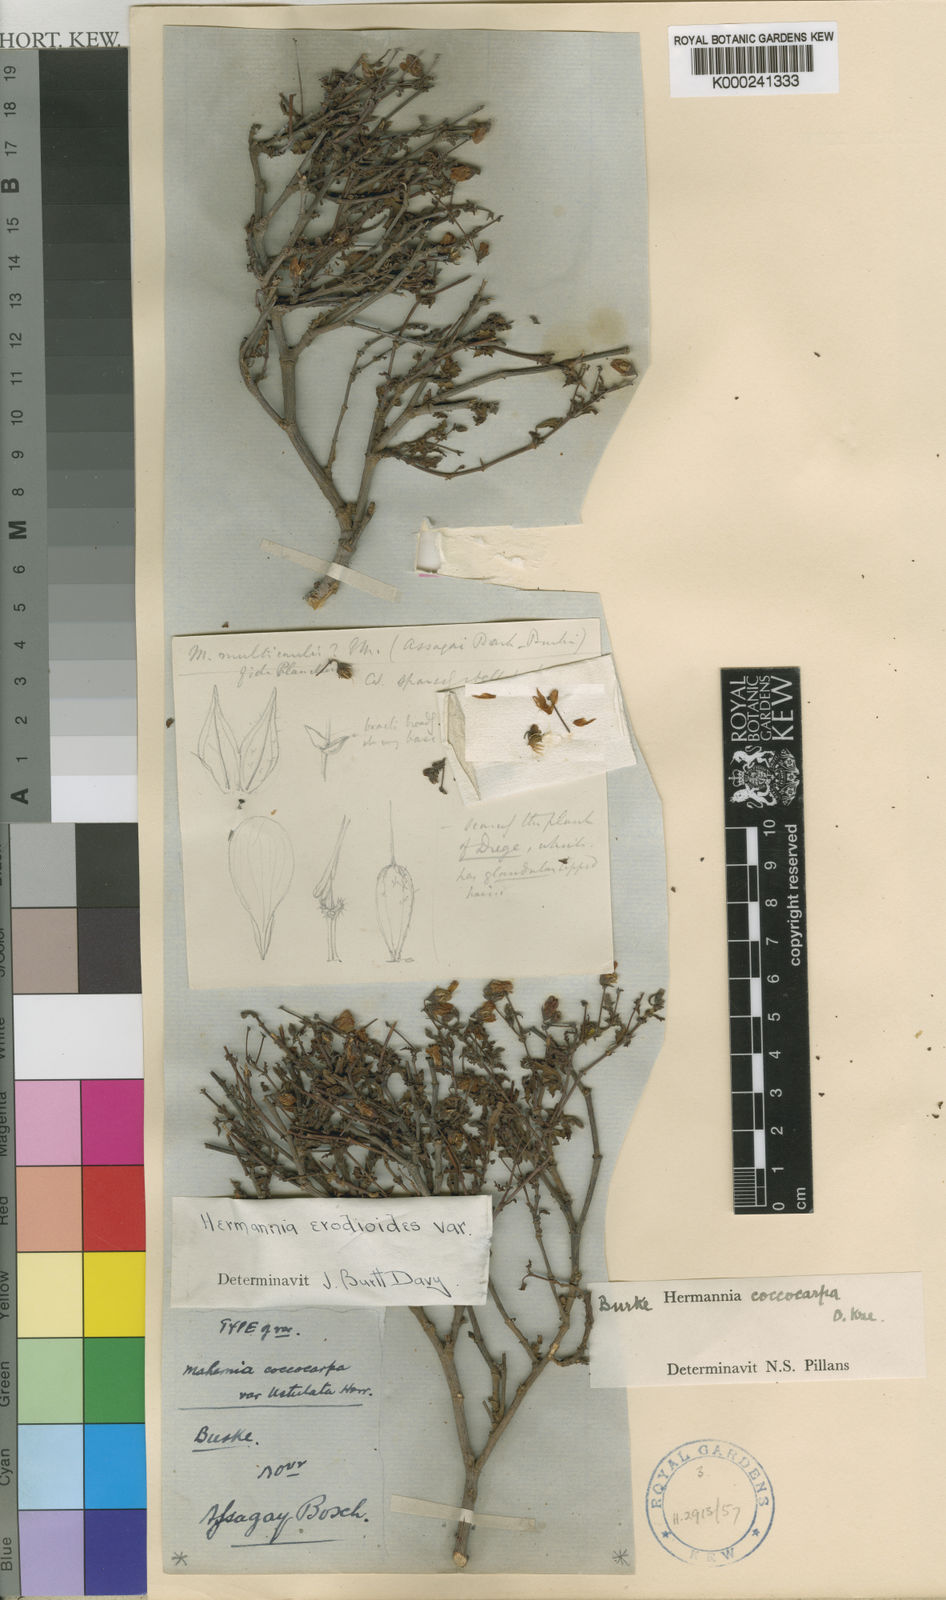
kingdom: Plantae
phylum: Tracheophyta
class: Magnoliopsida
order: Malvales
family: Malvaceae
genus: Hermannia
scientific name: Hermannia coccocarpa
